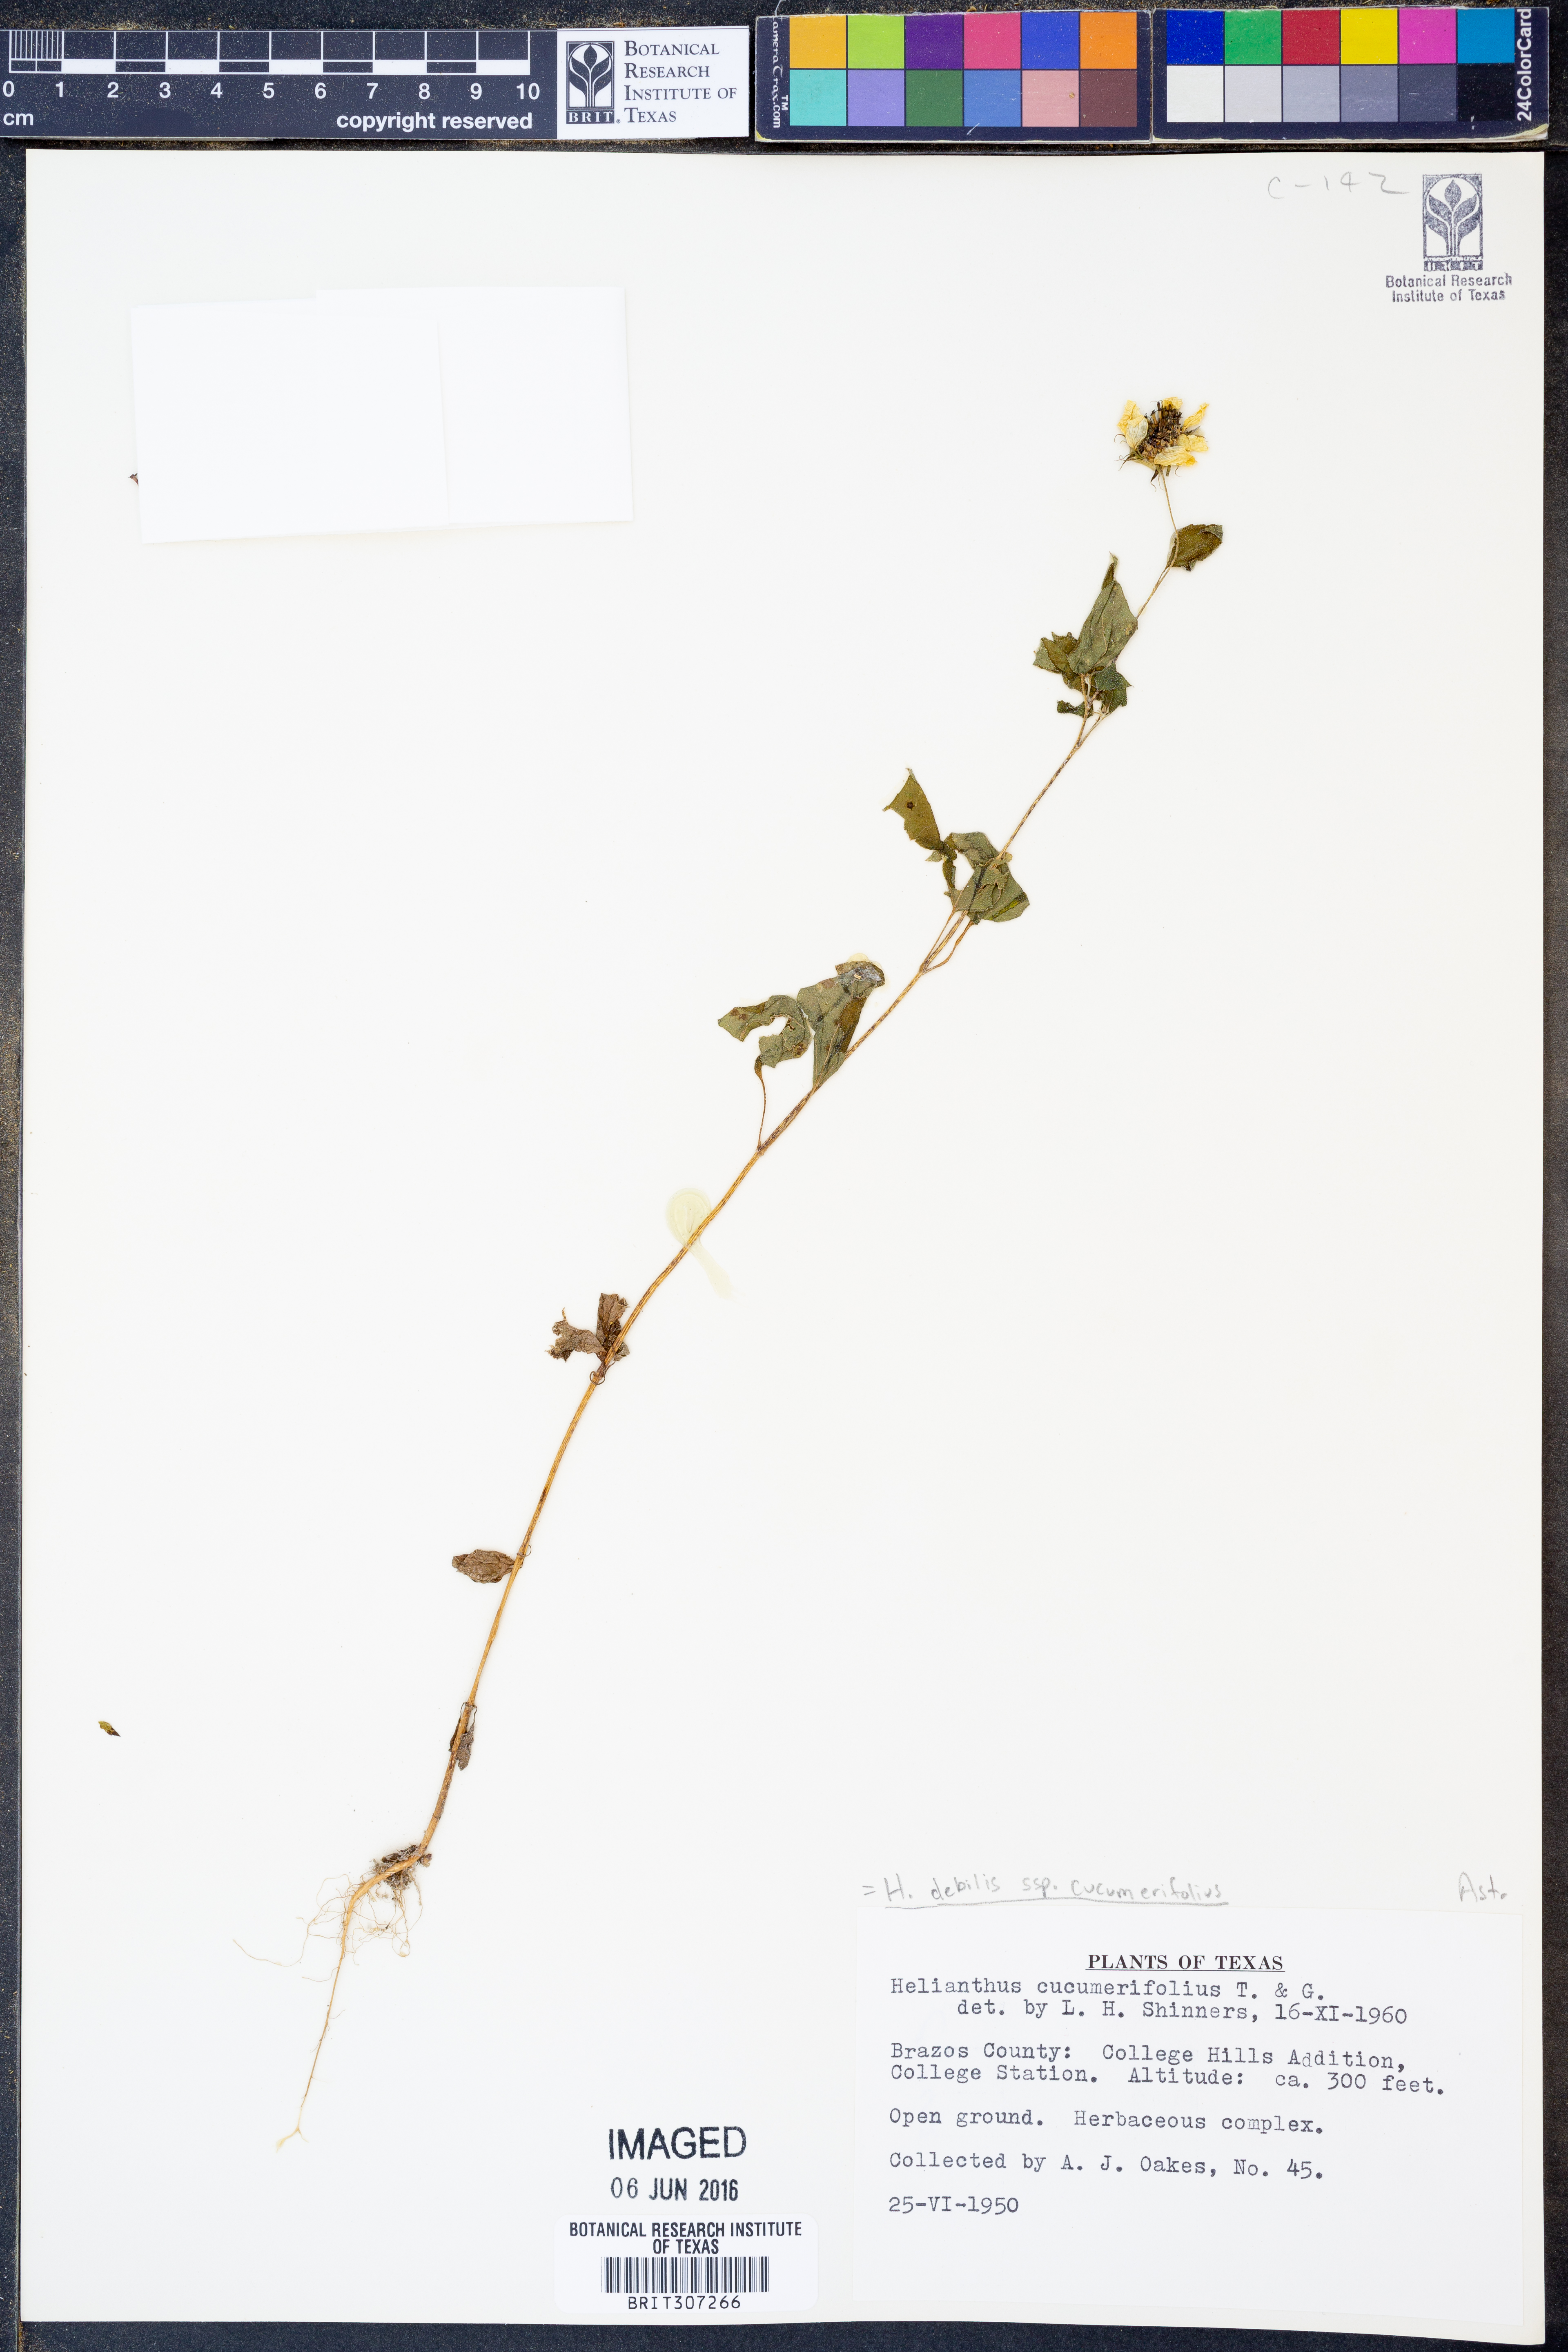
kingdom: Plantae
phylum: Tracheophyta
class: Magnoliopsida
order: Asterales
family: Asteraceae
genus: Helianthus
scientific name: Helianthus debilis
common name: Weak sunflower
